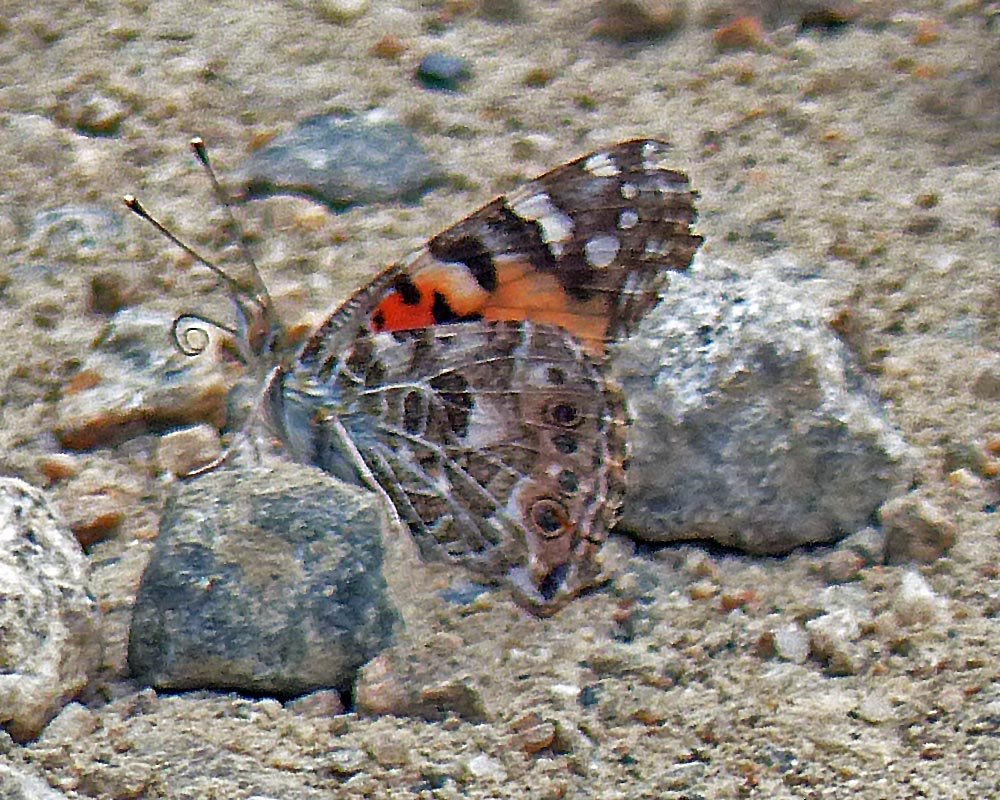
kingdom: Animalia
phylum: Arthropoda
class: Insecta
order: Lepidoptera
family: Nymphalidae
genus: Vanessa
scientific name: Vanessa cardui
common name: Painted Lady
